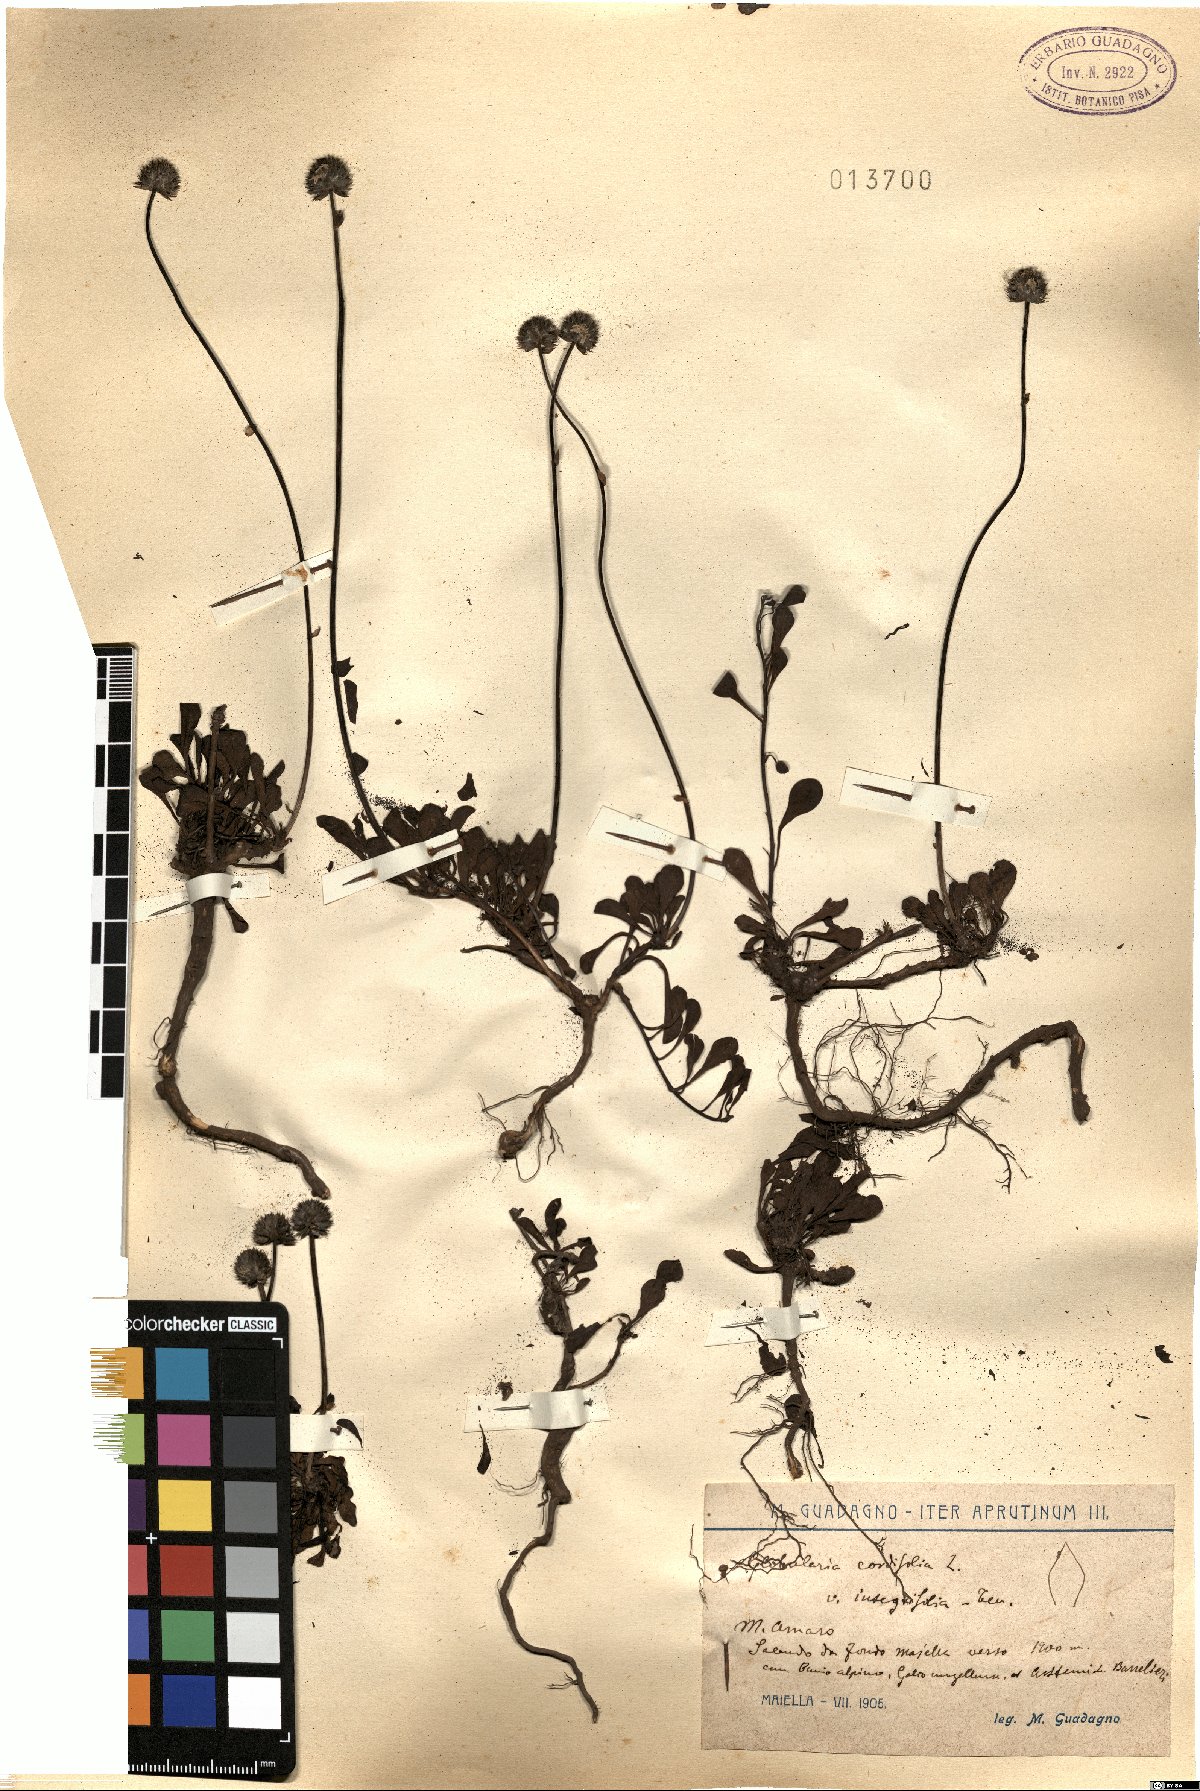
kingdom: Plantae
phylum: Tracheophyta
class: Magnoliopsida
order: Lamiales
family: Plantaginaceae
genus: Globularia
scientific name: Globularia cordifolia
